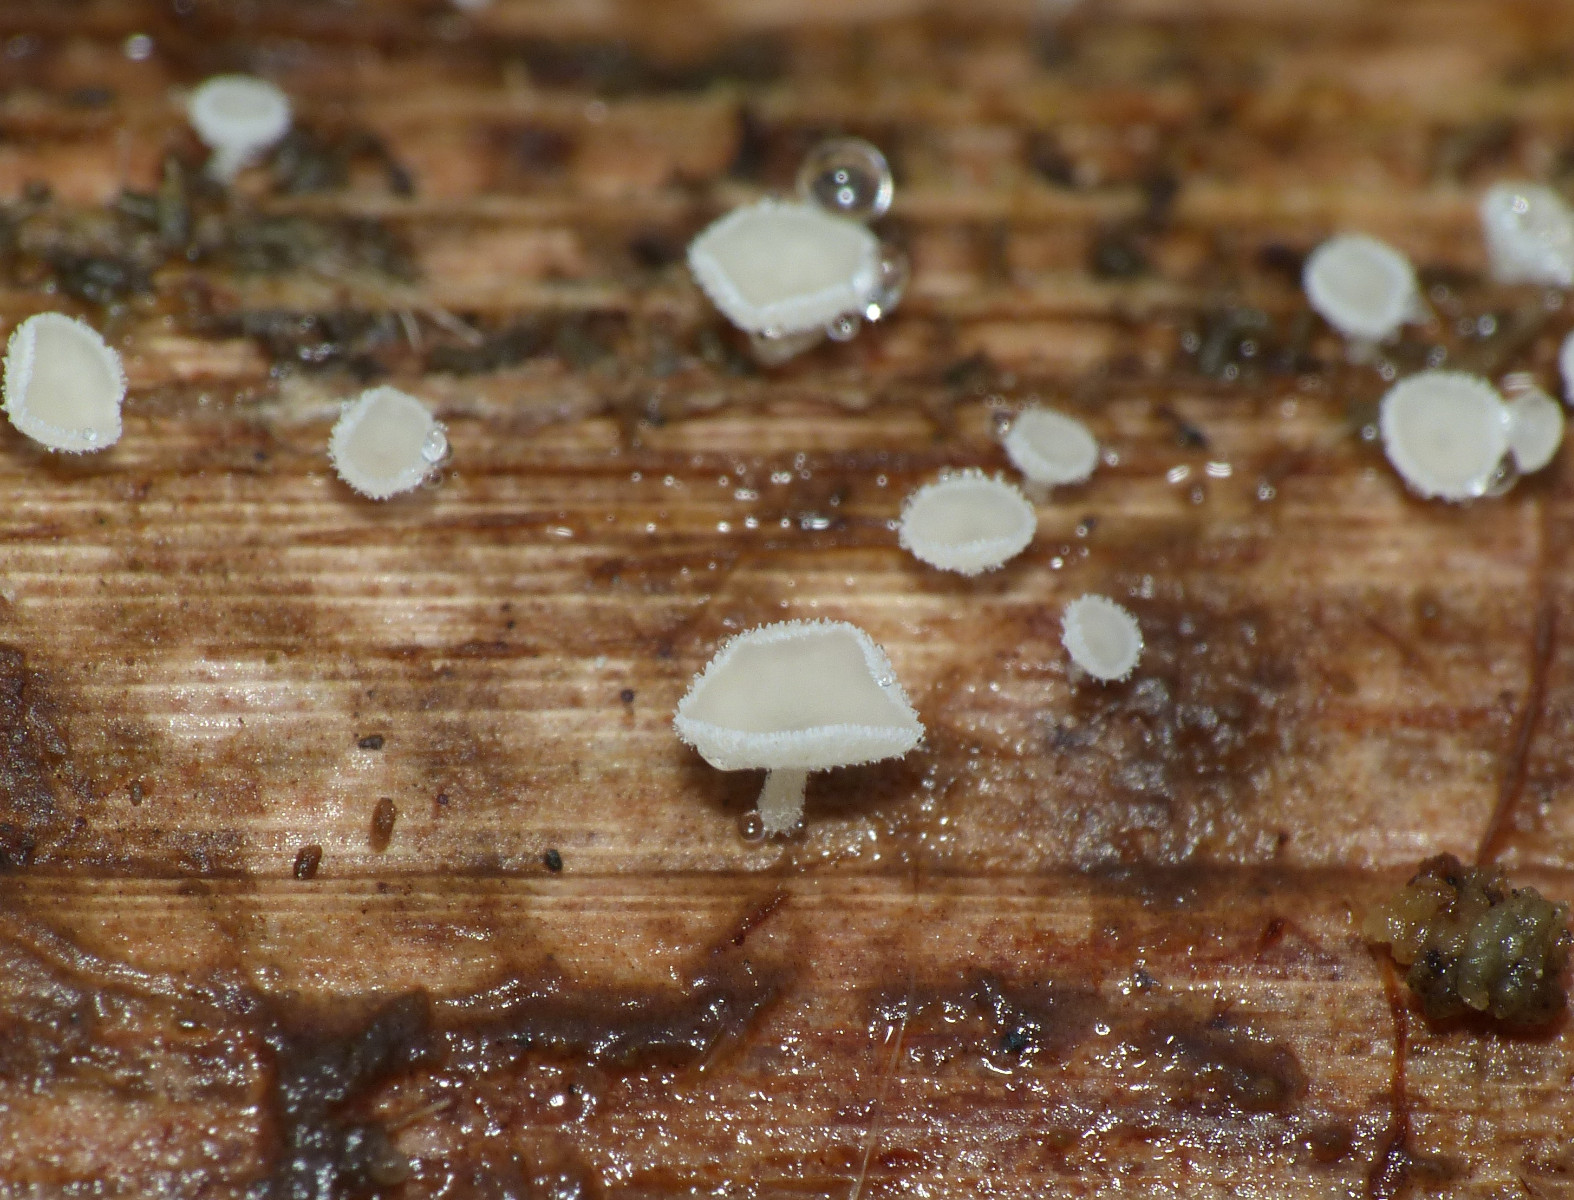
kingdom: Fungi
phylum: Ascomycota
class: Leotiomycetes
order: Helotiales
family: Lachnaceae
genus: Lachnum
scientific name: Lachnum tenuissimum
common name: spinkel frynseskive
